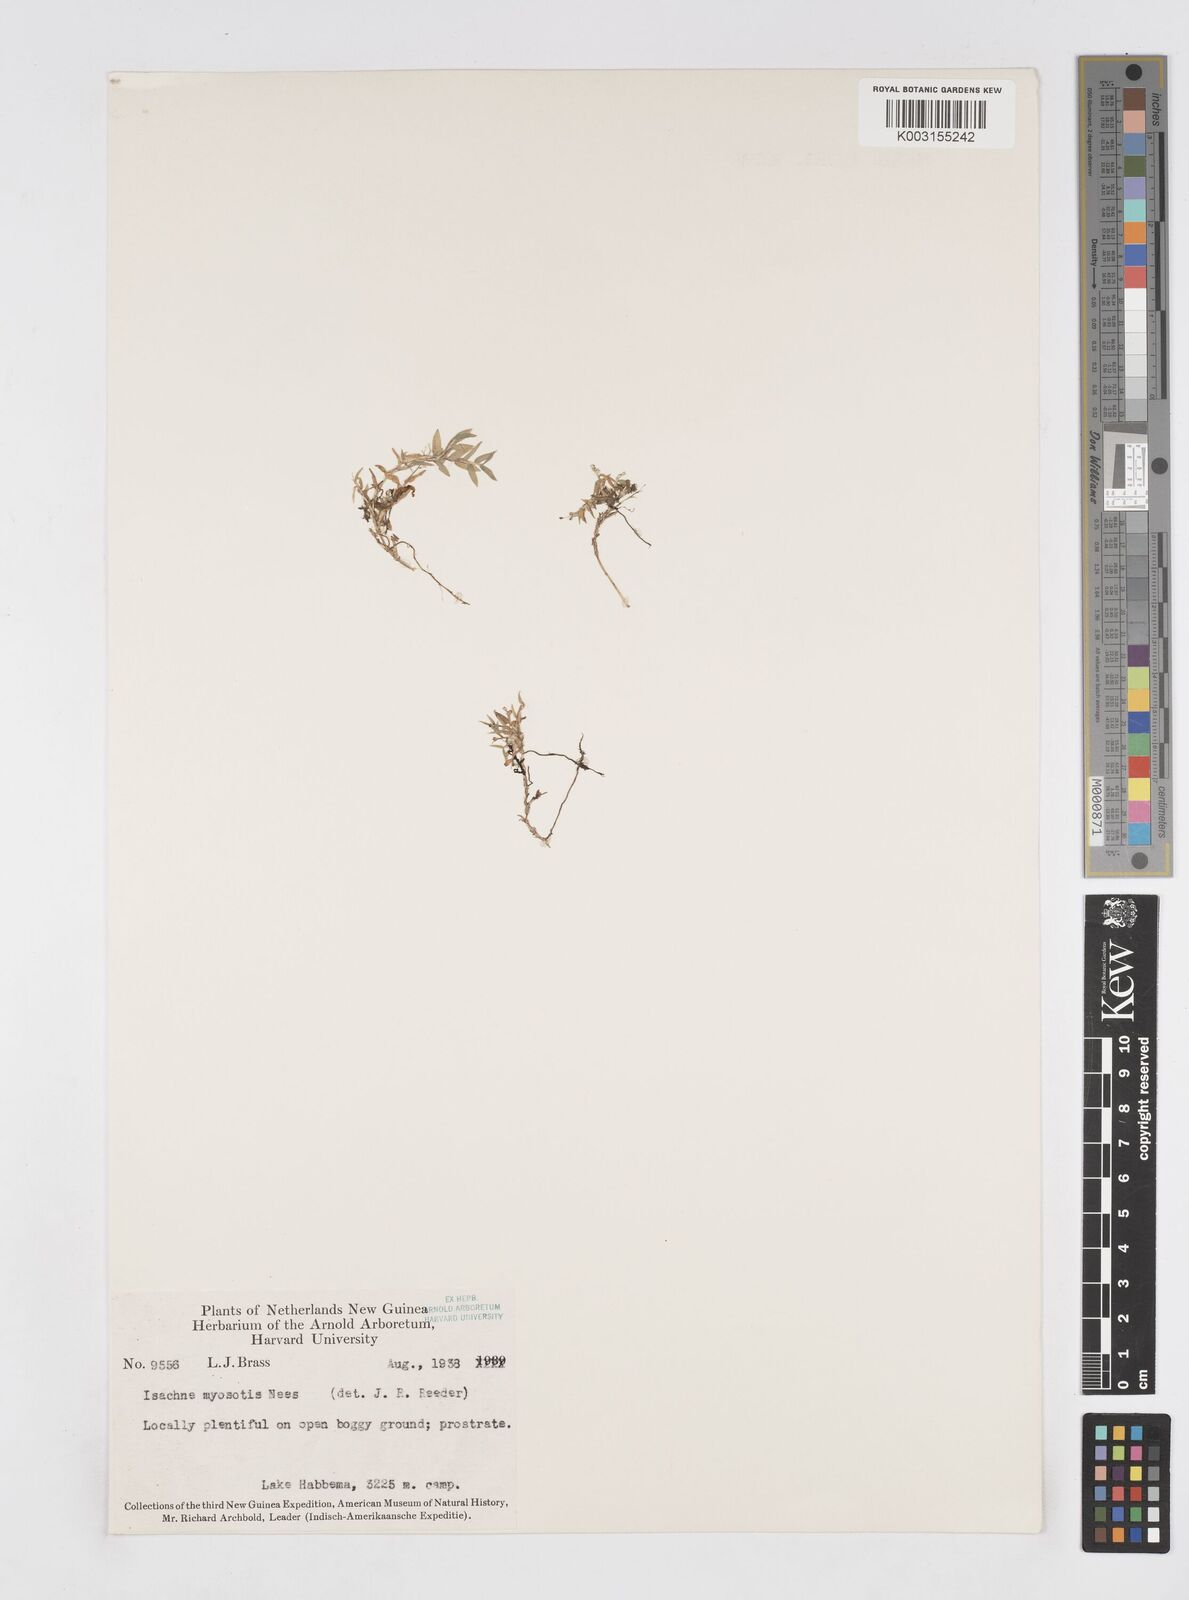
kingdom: Plantae
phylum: Tracheophyta
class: Liliopsida
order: Poales
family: Poaceae
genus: Isachne
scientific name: Isachne myosotis
